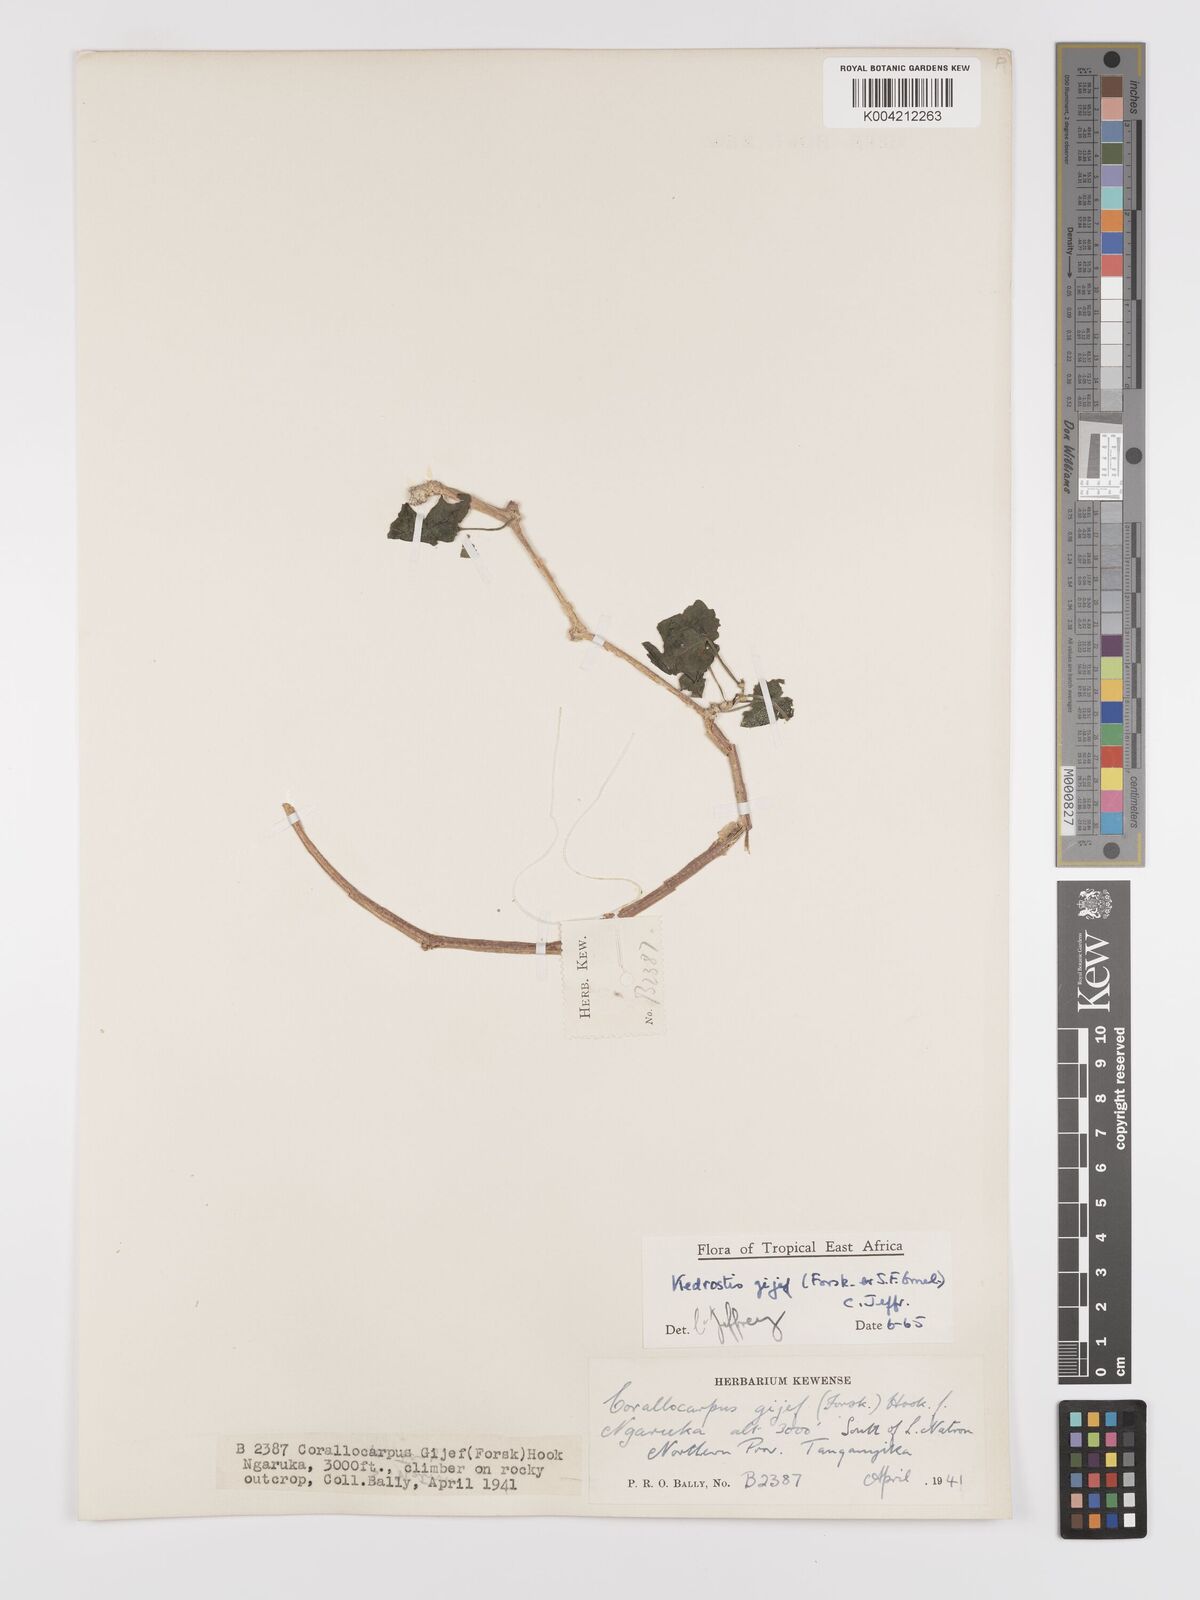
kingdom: Plantae
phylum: Tracheophyta
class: Magnoliopsida
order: Cucurbitales
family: Cucurbitaceae
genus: Kedrostis
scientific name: Kedrostis gijef
